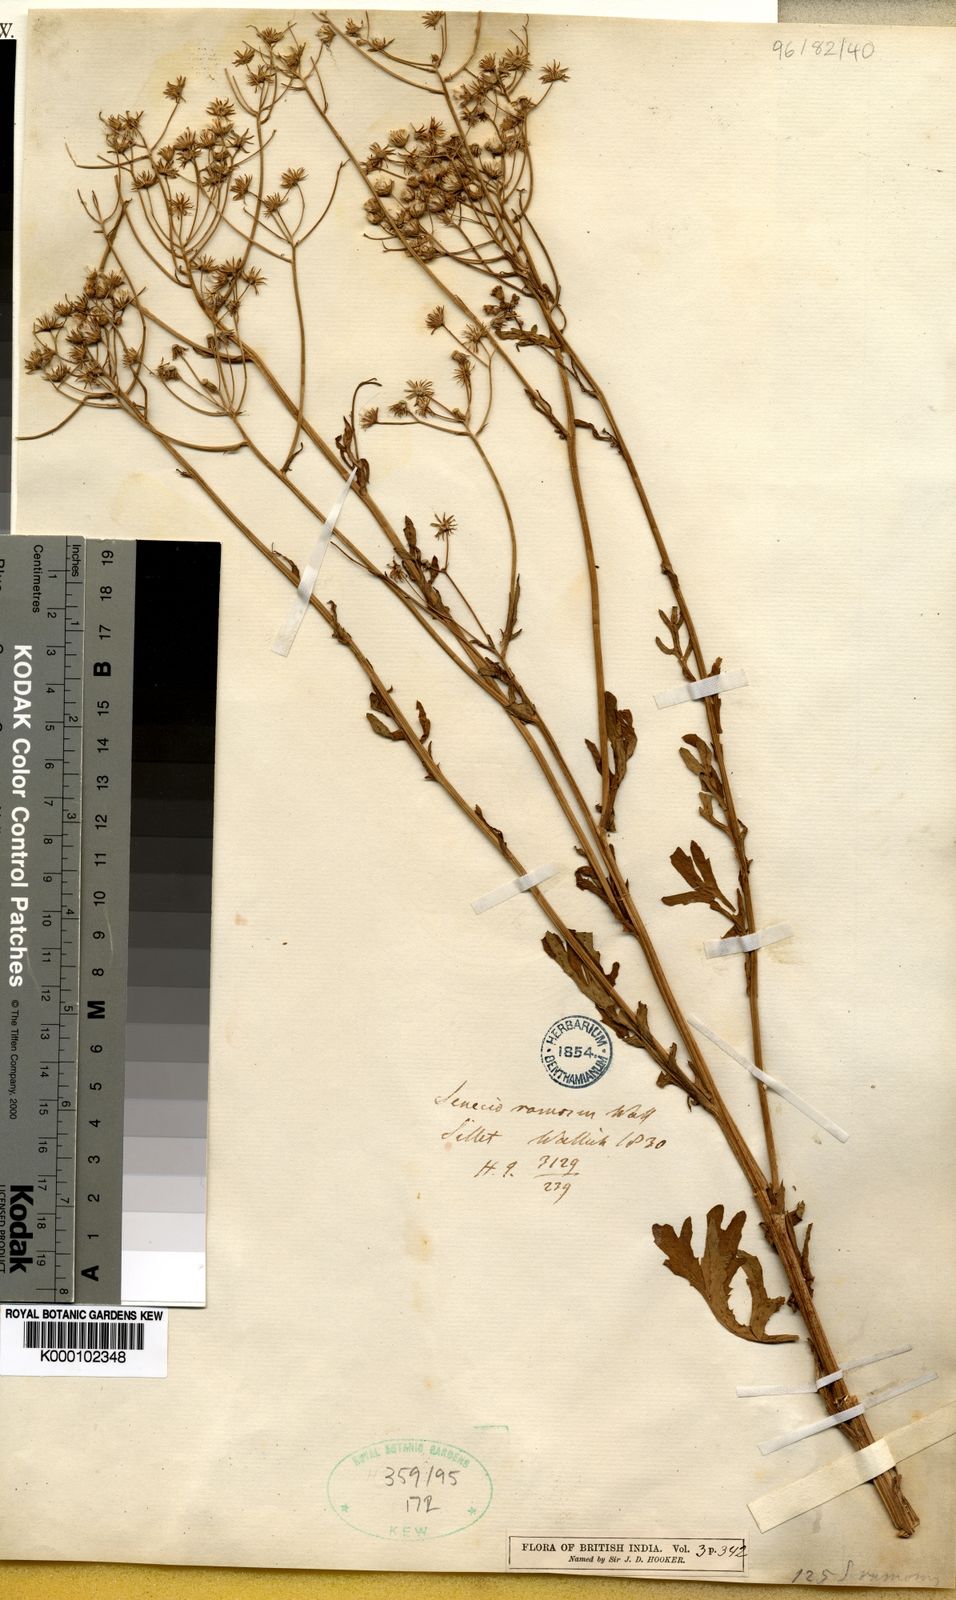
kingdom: Plantae
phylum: Tracheophyta
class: Magnoliopsida
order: Asterales
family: Asteraceae
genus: Senecio
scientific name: Senecio ramosus
